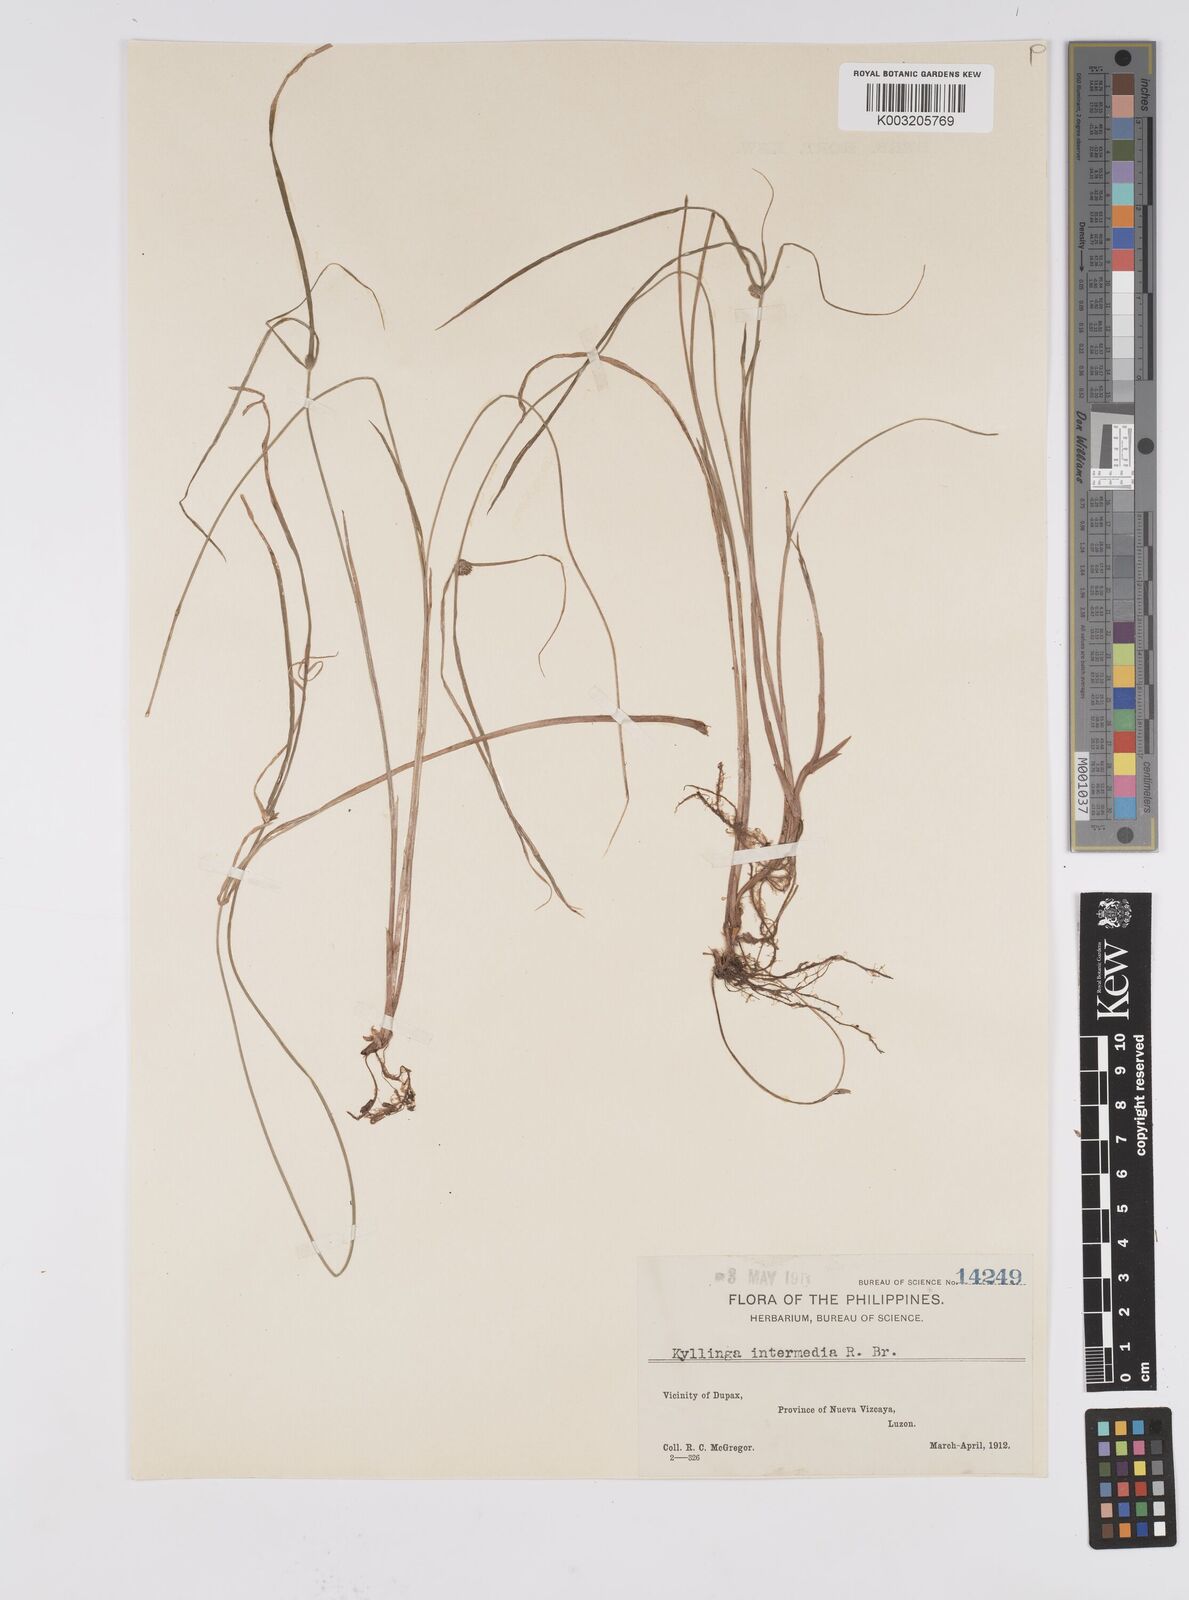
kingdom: Plantae
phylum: Tracheophyta
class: Liliopsida
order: Poales
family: Cyperaceae
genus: Cyperus
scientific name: Cyperus brevifolius
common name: Globe kyllinga
